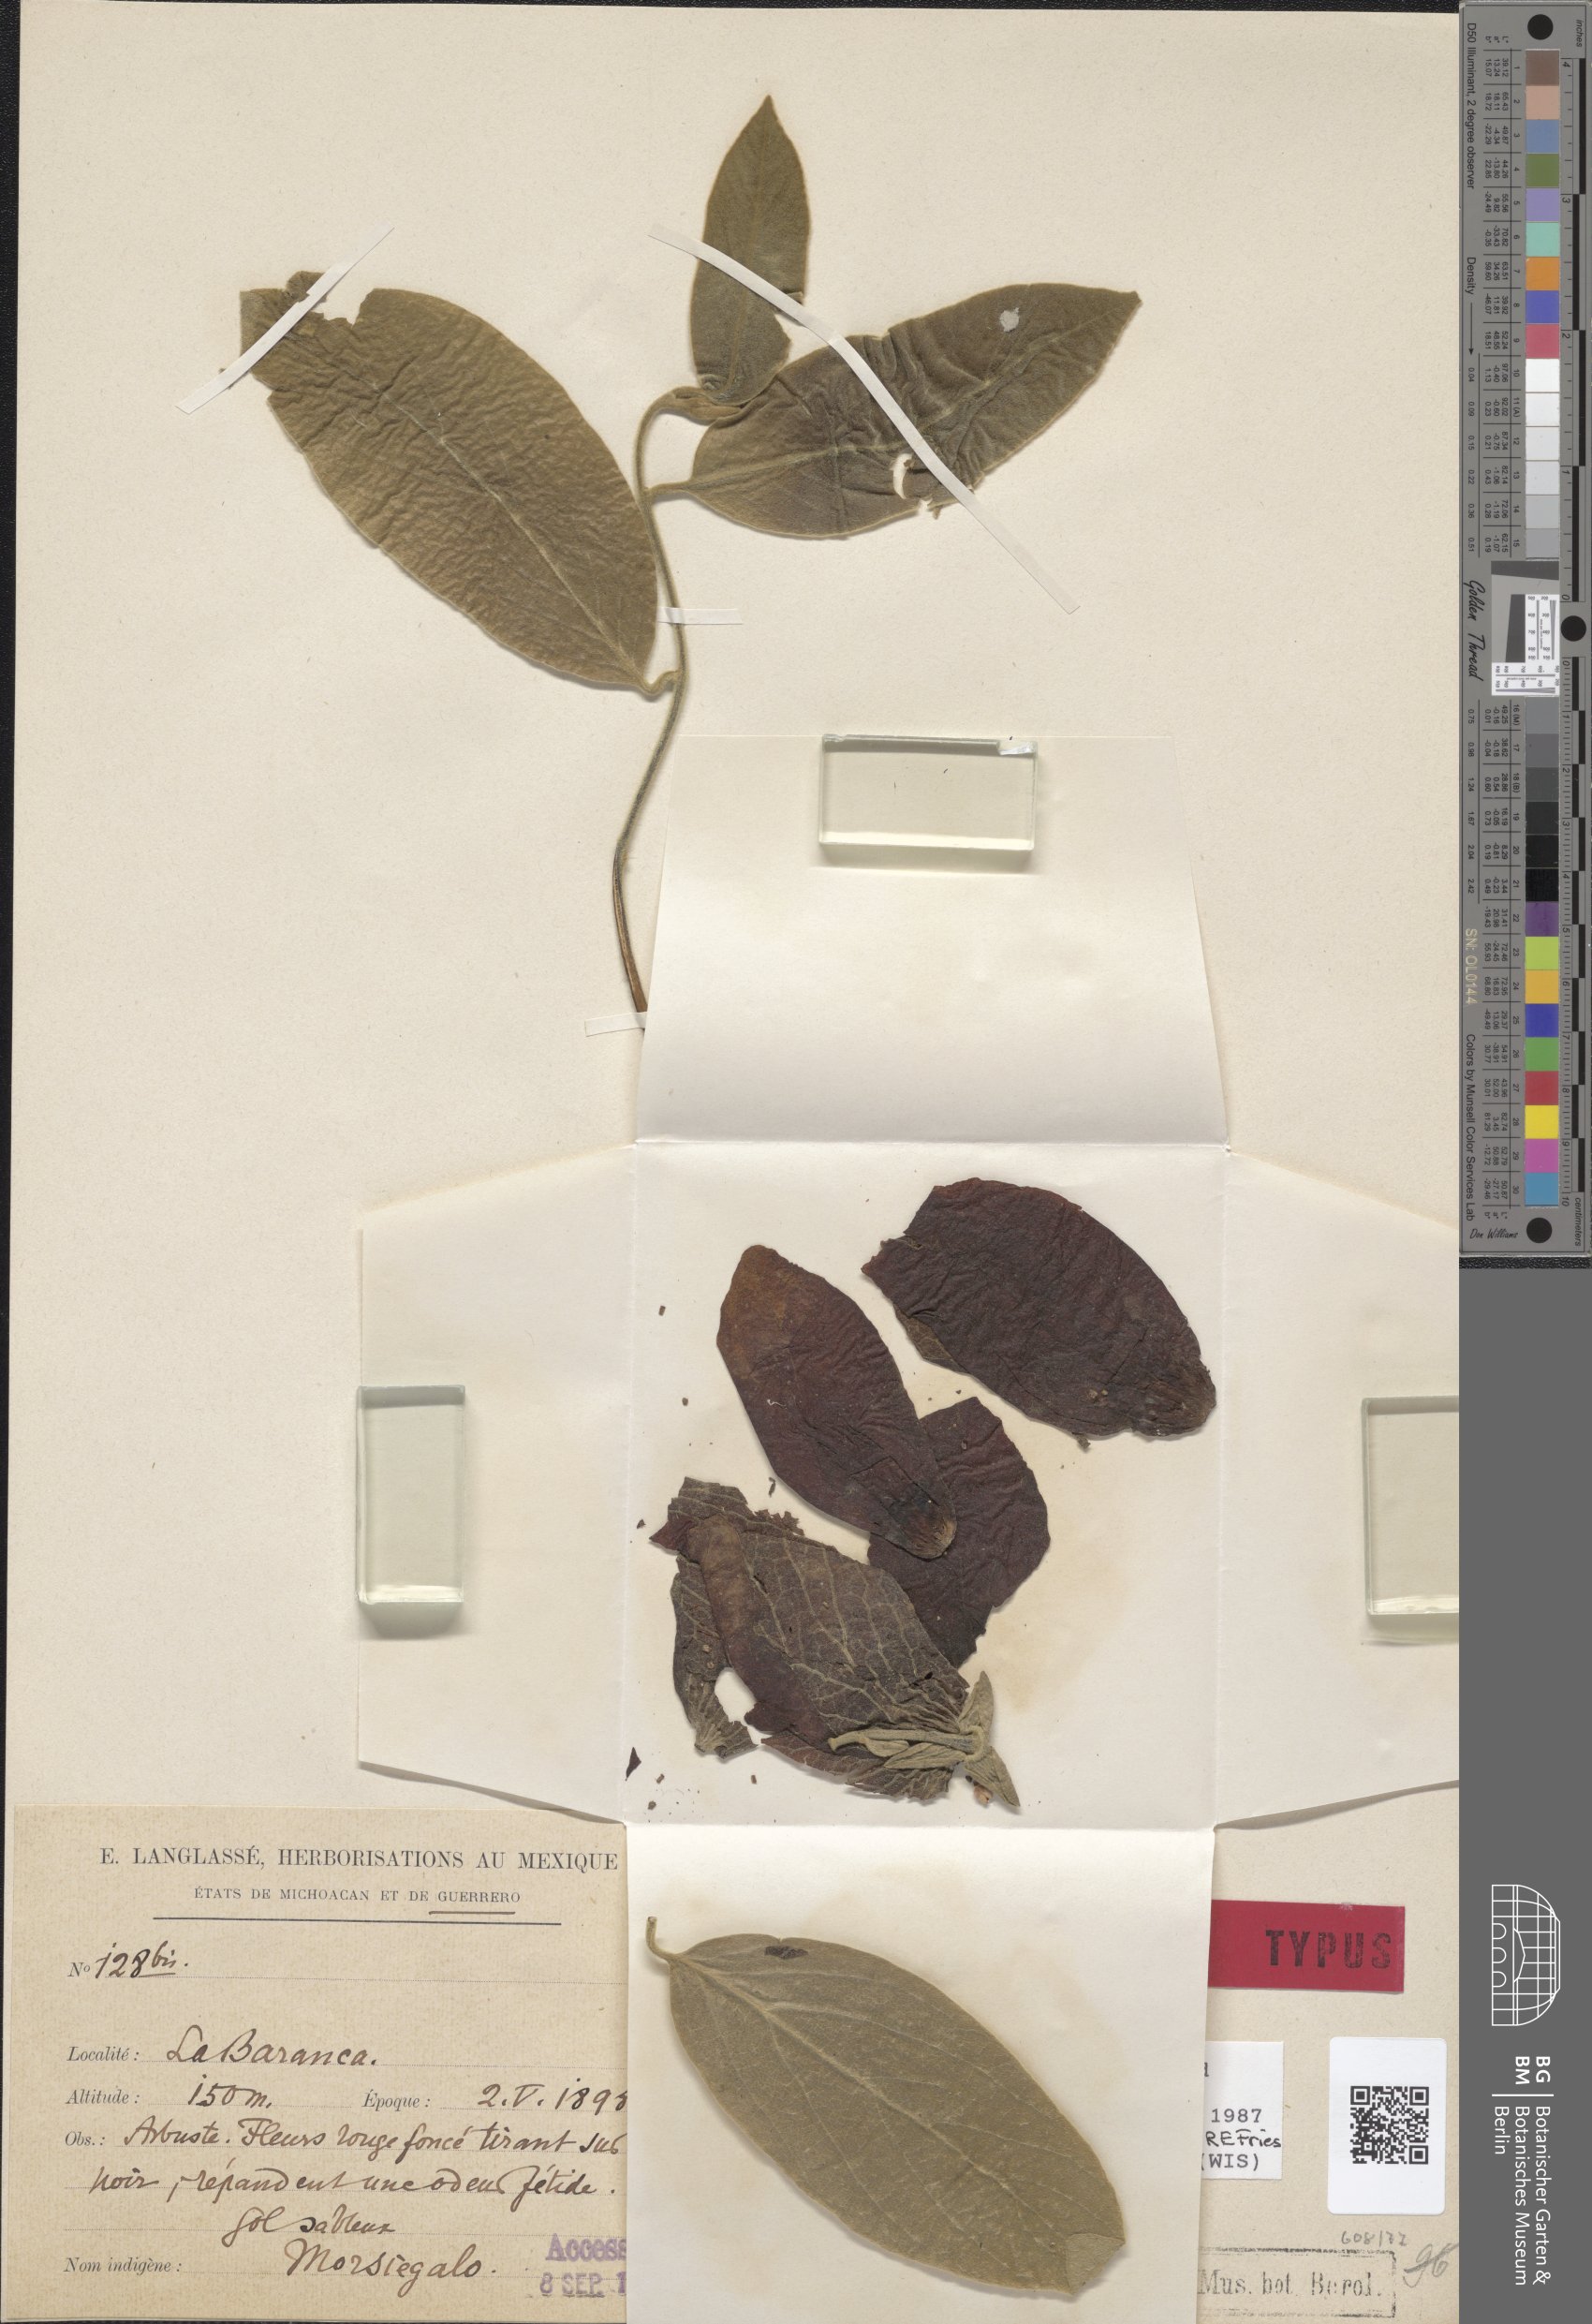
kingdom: Plantae
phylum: Tracheophyta
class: Magnoliopsida
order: Magnoliales
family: Annonaceae
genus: Sapranthus
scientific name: Sapranthus violaceus
